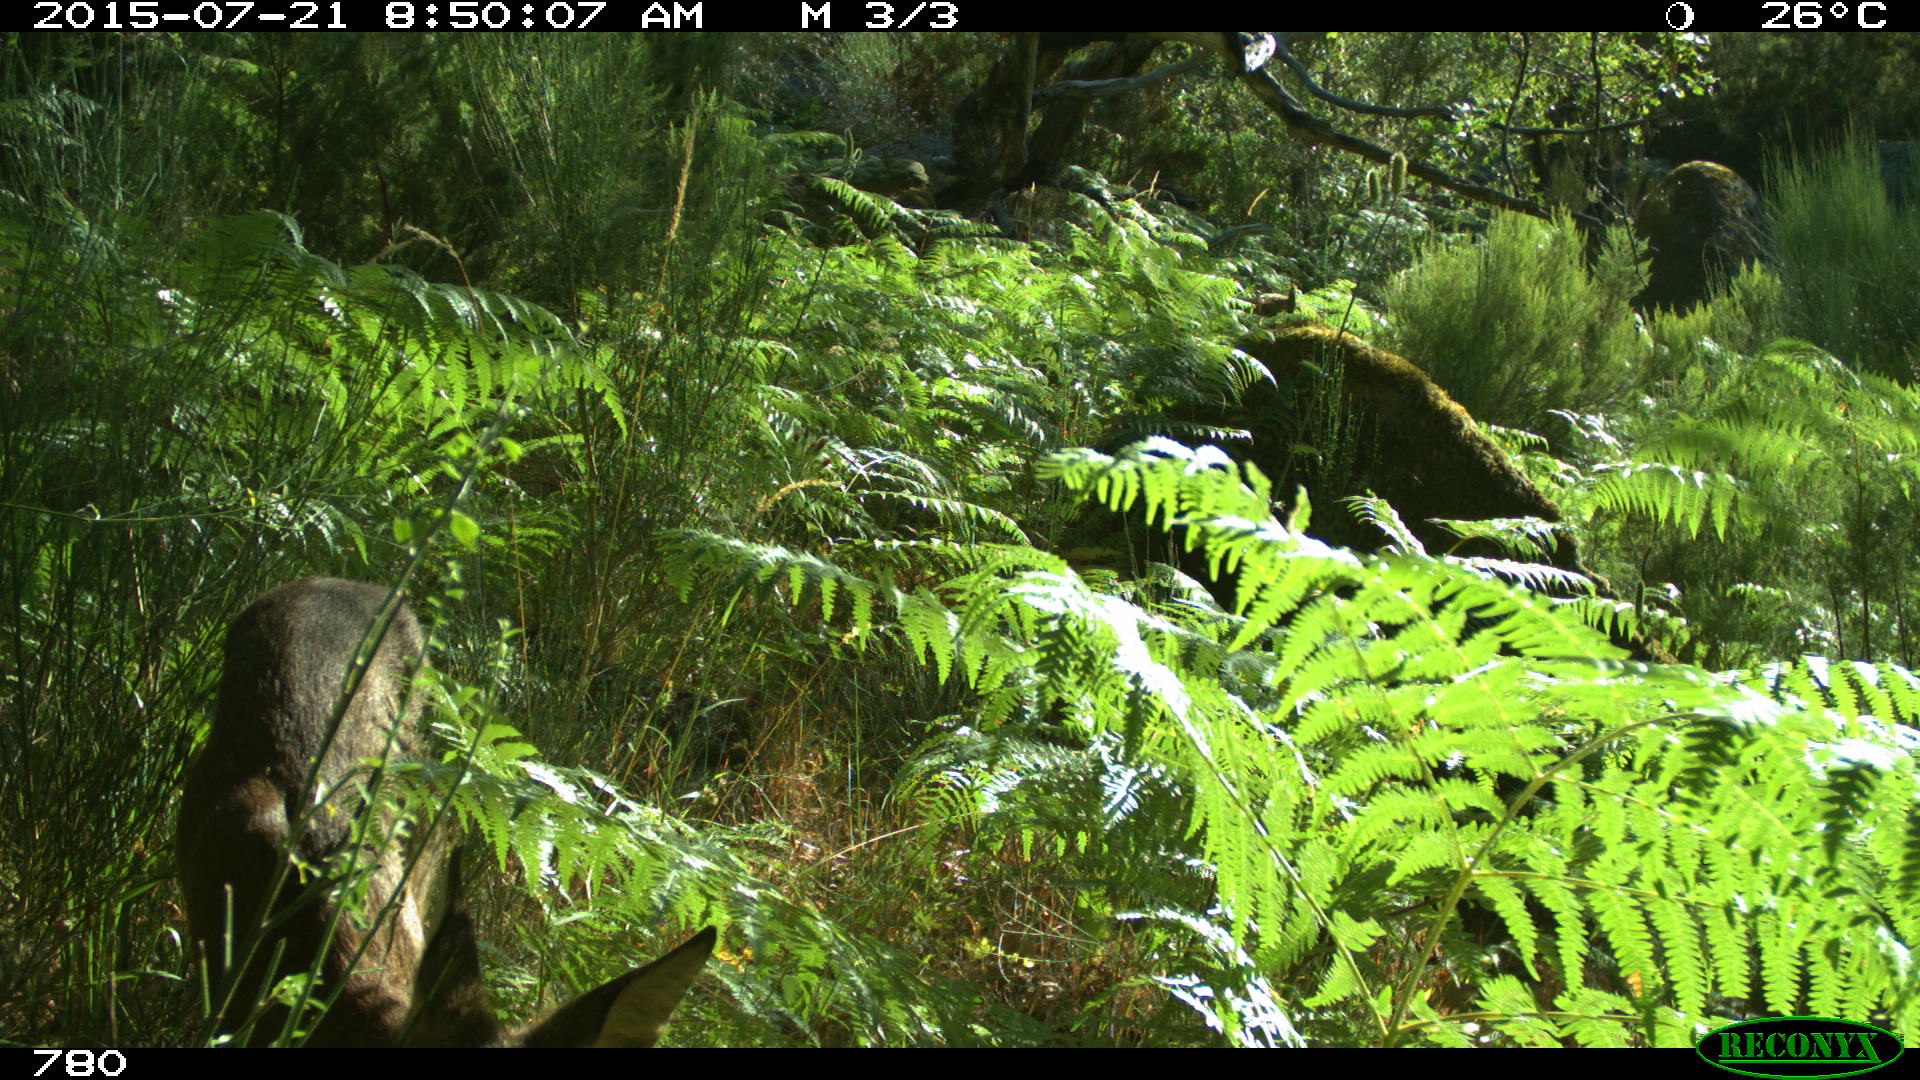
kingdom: Animalia
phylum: Chordata
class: Mammalia
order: Artiodactyla
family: Cervidae
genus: Capreolus
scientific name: Capreolus capreolus
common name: Western roe deer
